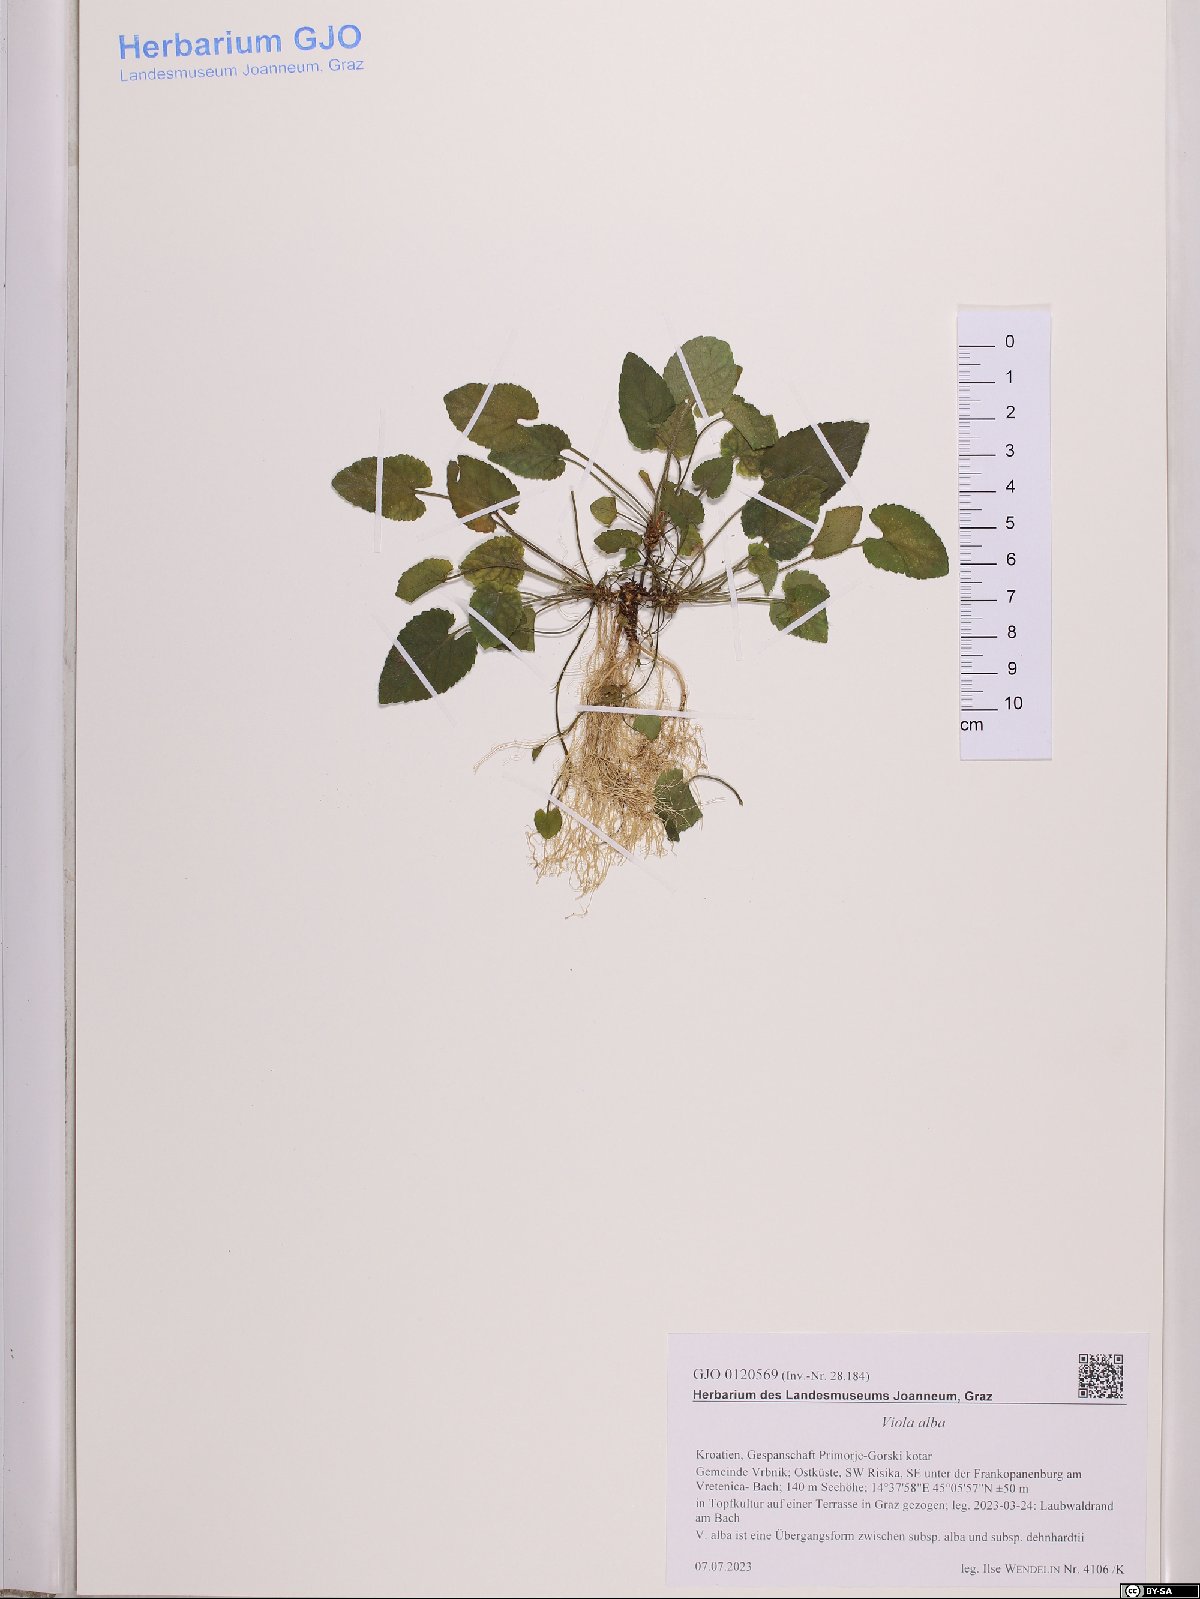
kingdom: Plantae
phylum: Tracheophyta
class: Magnoliopsida
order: Malpighiales
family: Violaceae
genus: Viola
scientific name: Viola alba
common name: White violet
